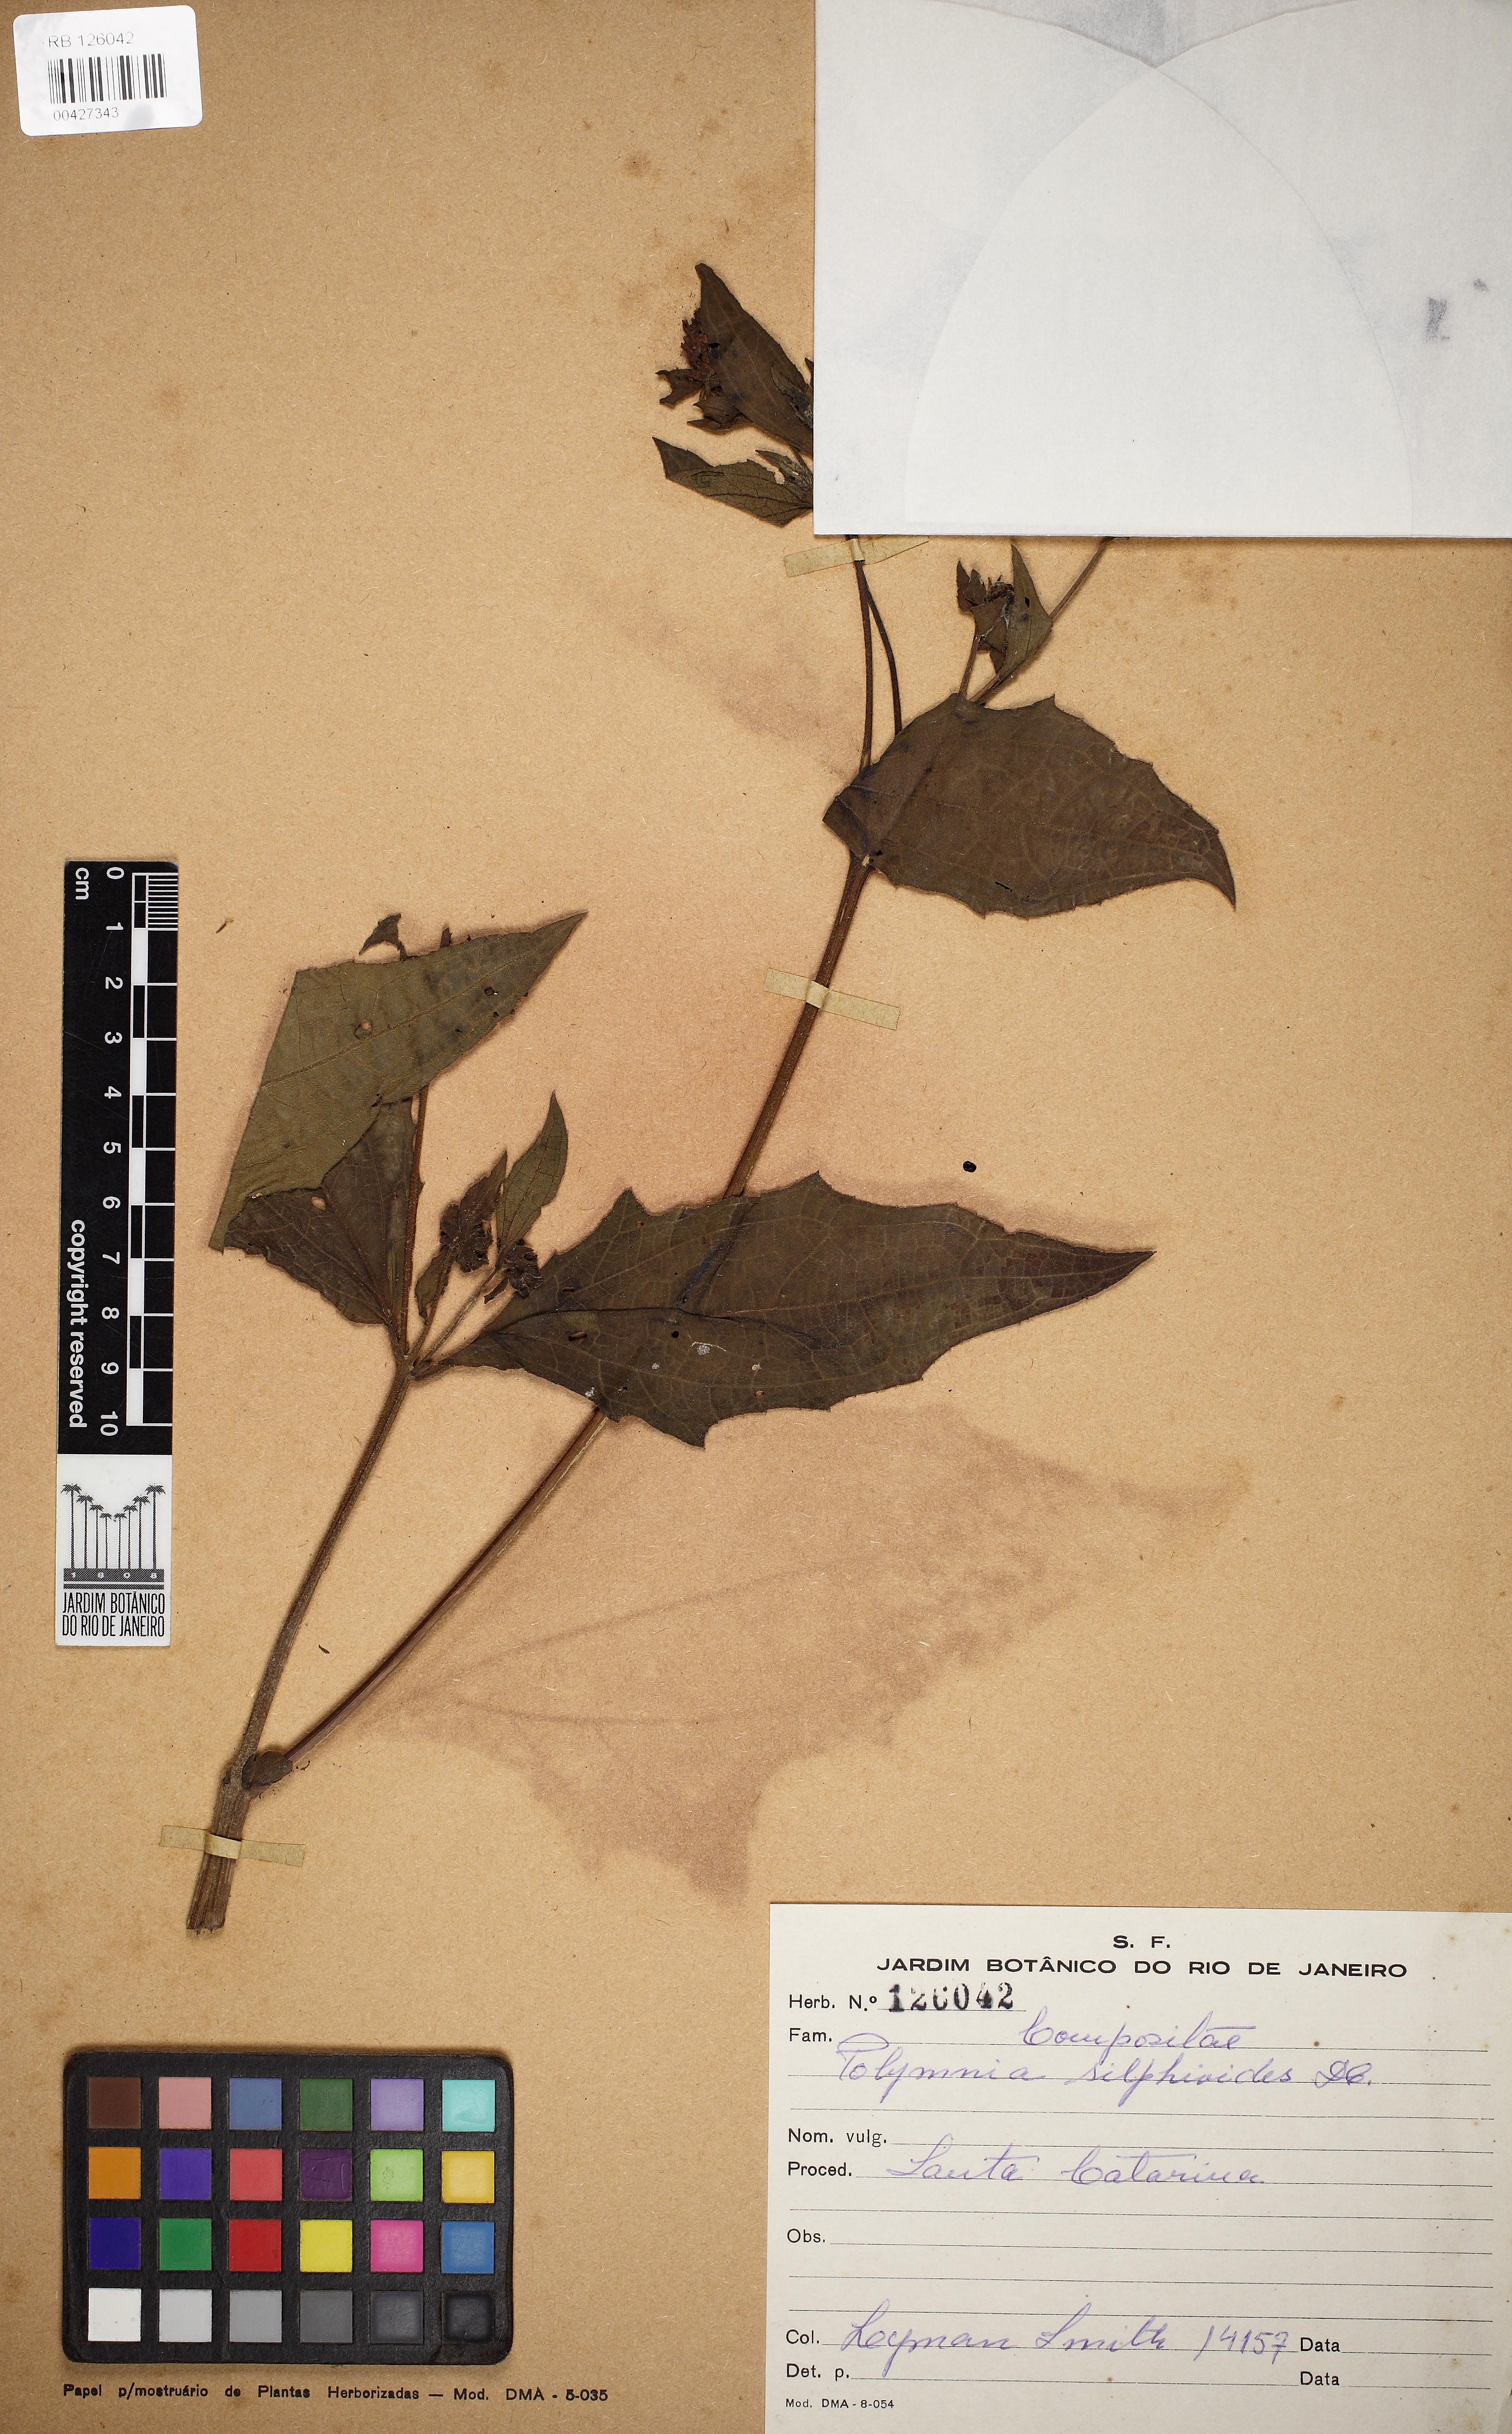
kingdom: Plantae
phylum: Tracheophyta
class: Magnoliopsida
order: Asterales
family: Asteraceae
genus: Smallanthus
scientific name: Smallanthus connatus
